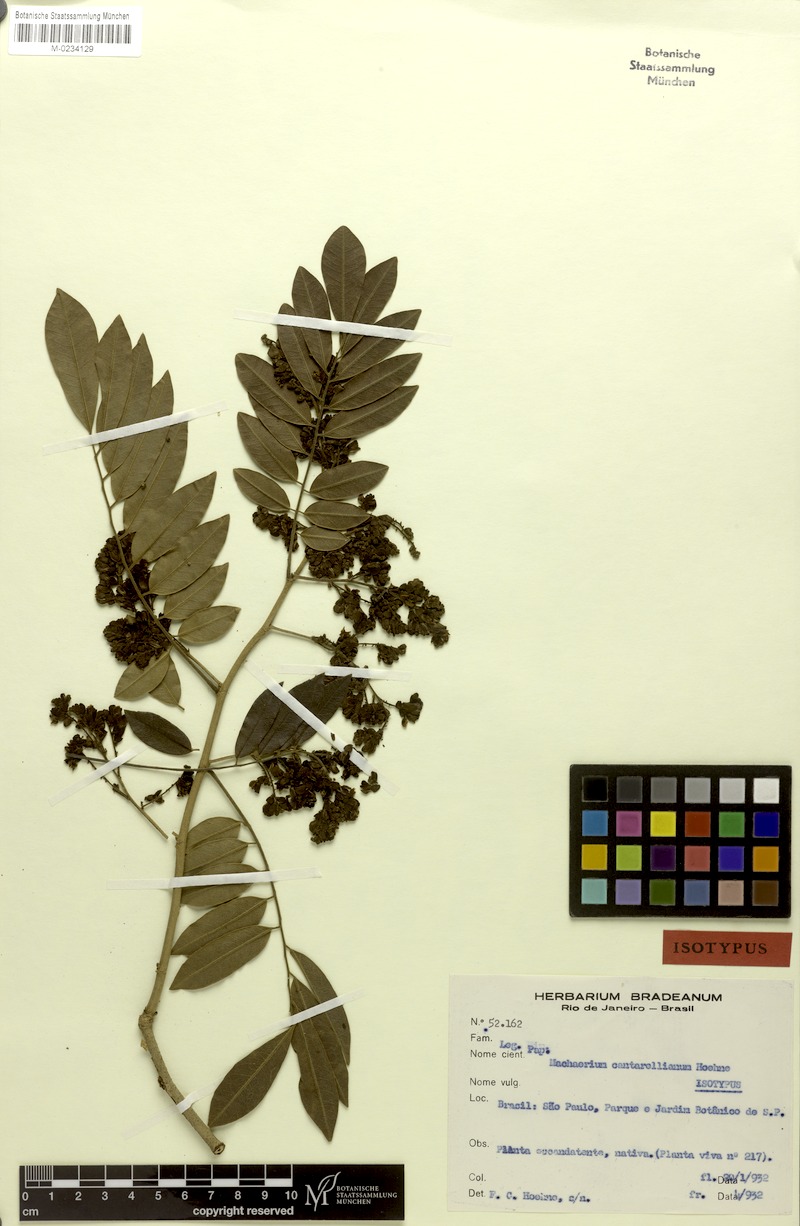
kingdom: Plantae
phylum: Tracheophyta
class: Magnoliopsida
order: Fabales
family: Fabaceae
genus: Machaerium
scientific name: Machaerium cantarellianum
